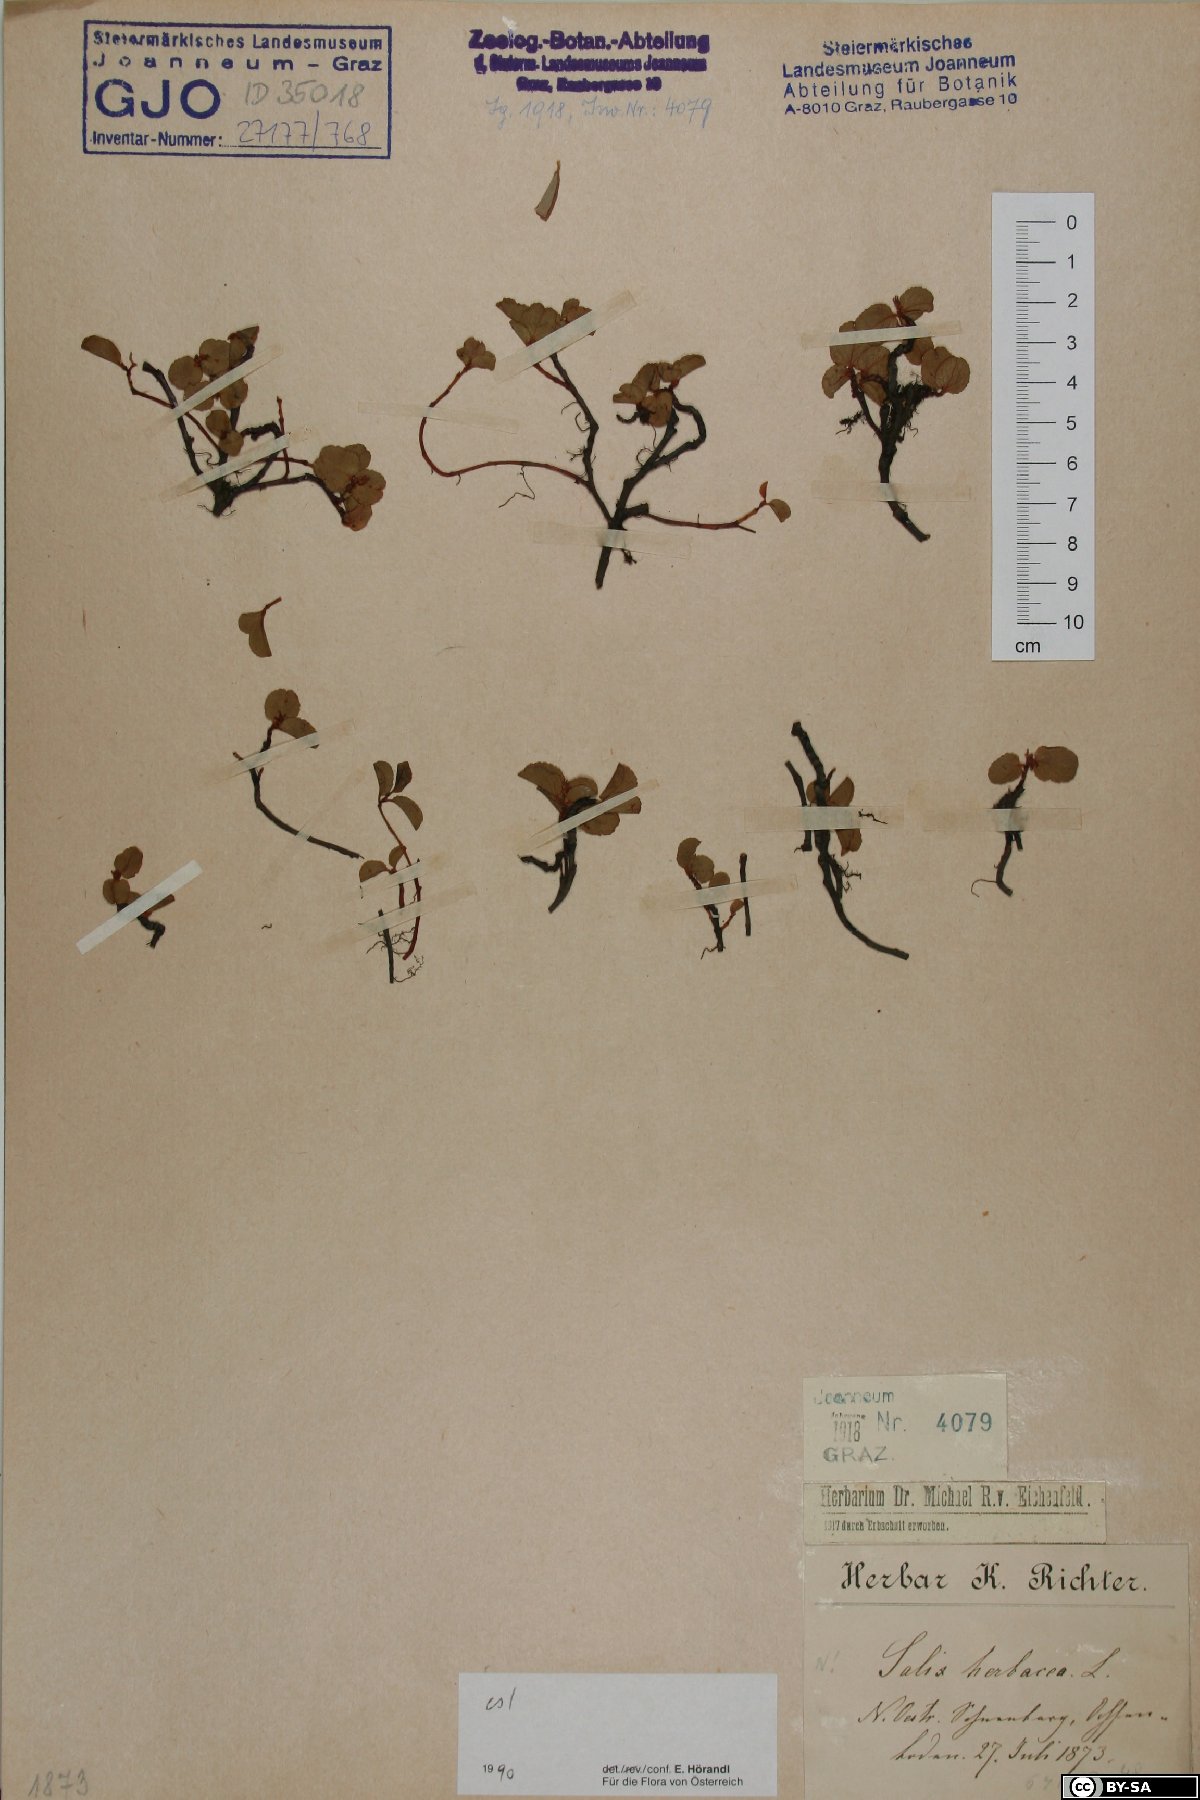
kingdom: Plantae
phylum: Tracheophyta
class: Magnoliopsida
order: Malpighiales
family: Salicaceae
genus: Salix
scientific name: Salix herbacea
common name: Dwarf willow
